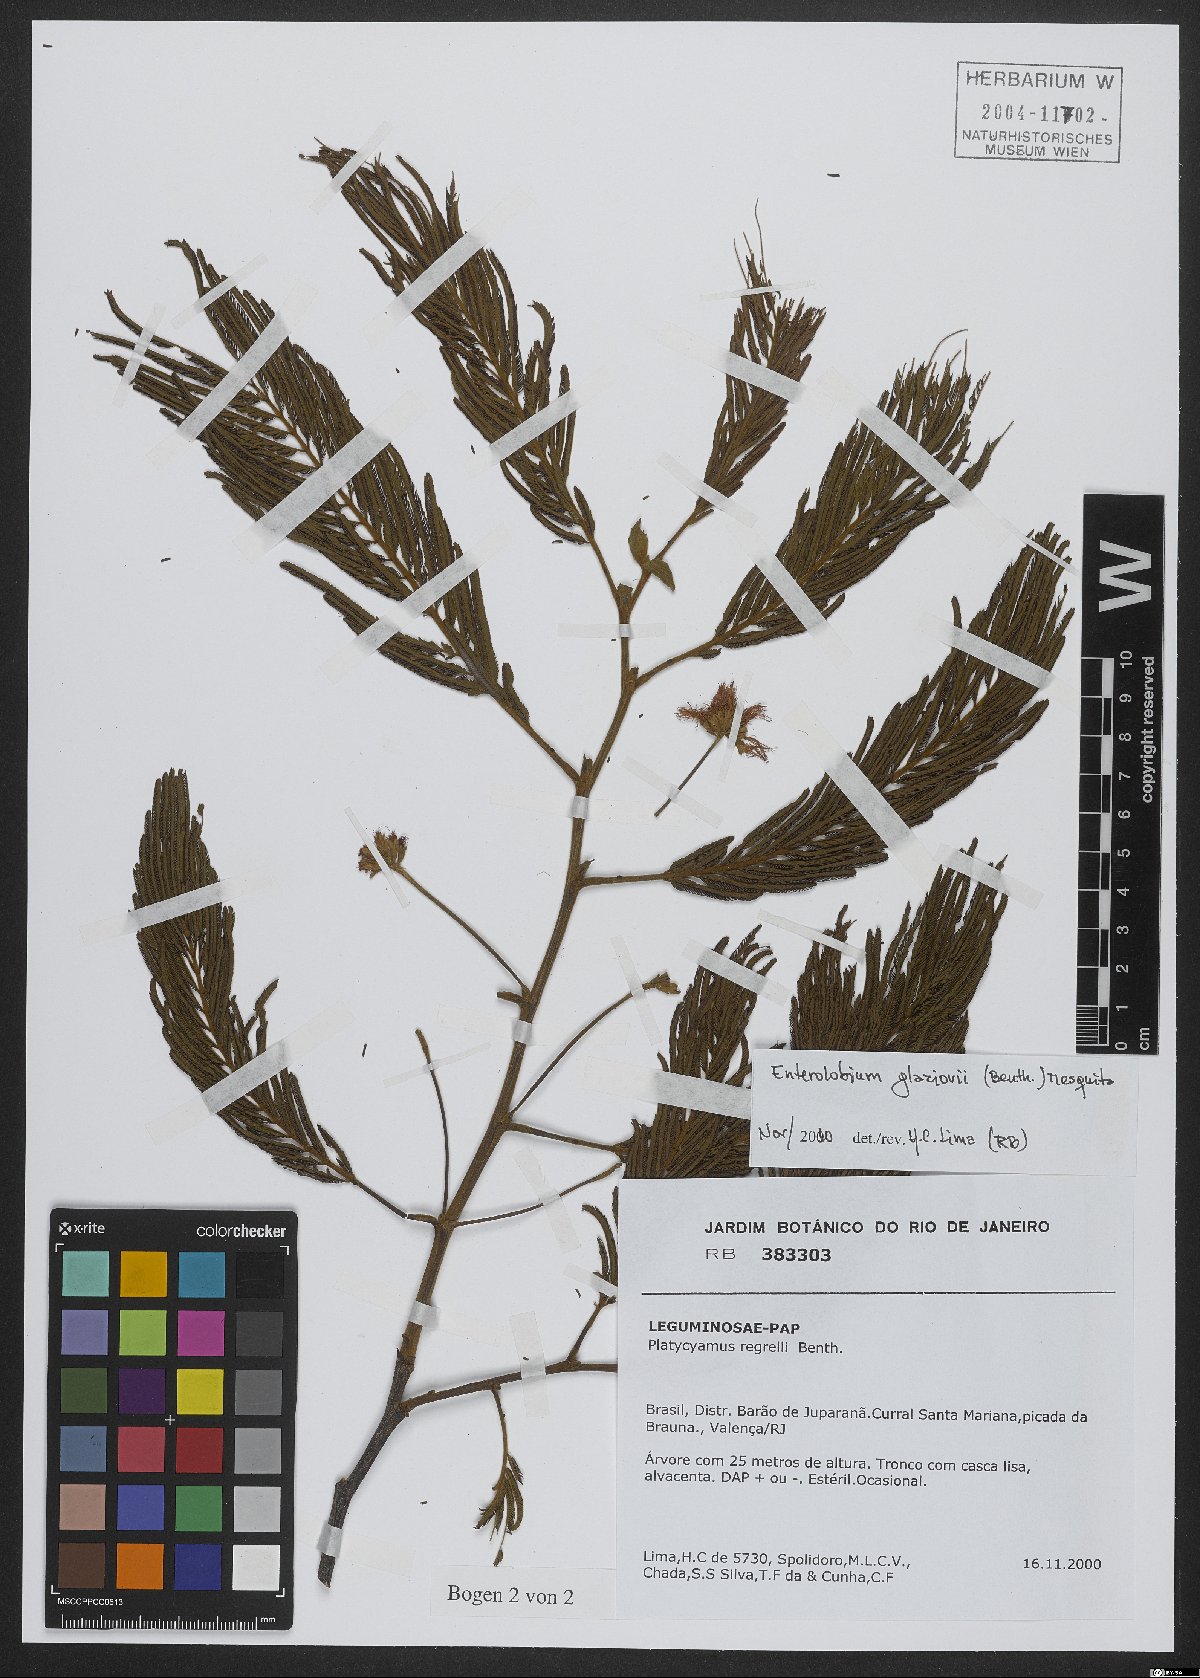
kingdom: Plantae
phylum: Tracheophyta
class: Magnoliopsida
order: Fabales
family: Fabaceae
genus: Enterolobium
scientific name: Enterolobium glaziovii
